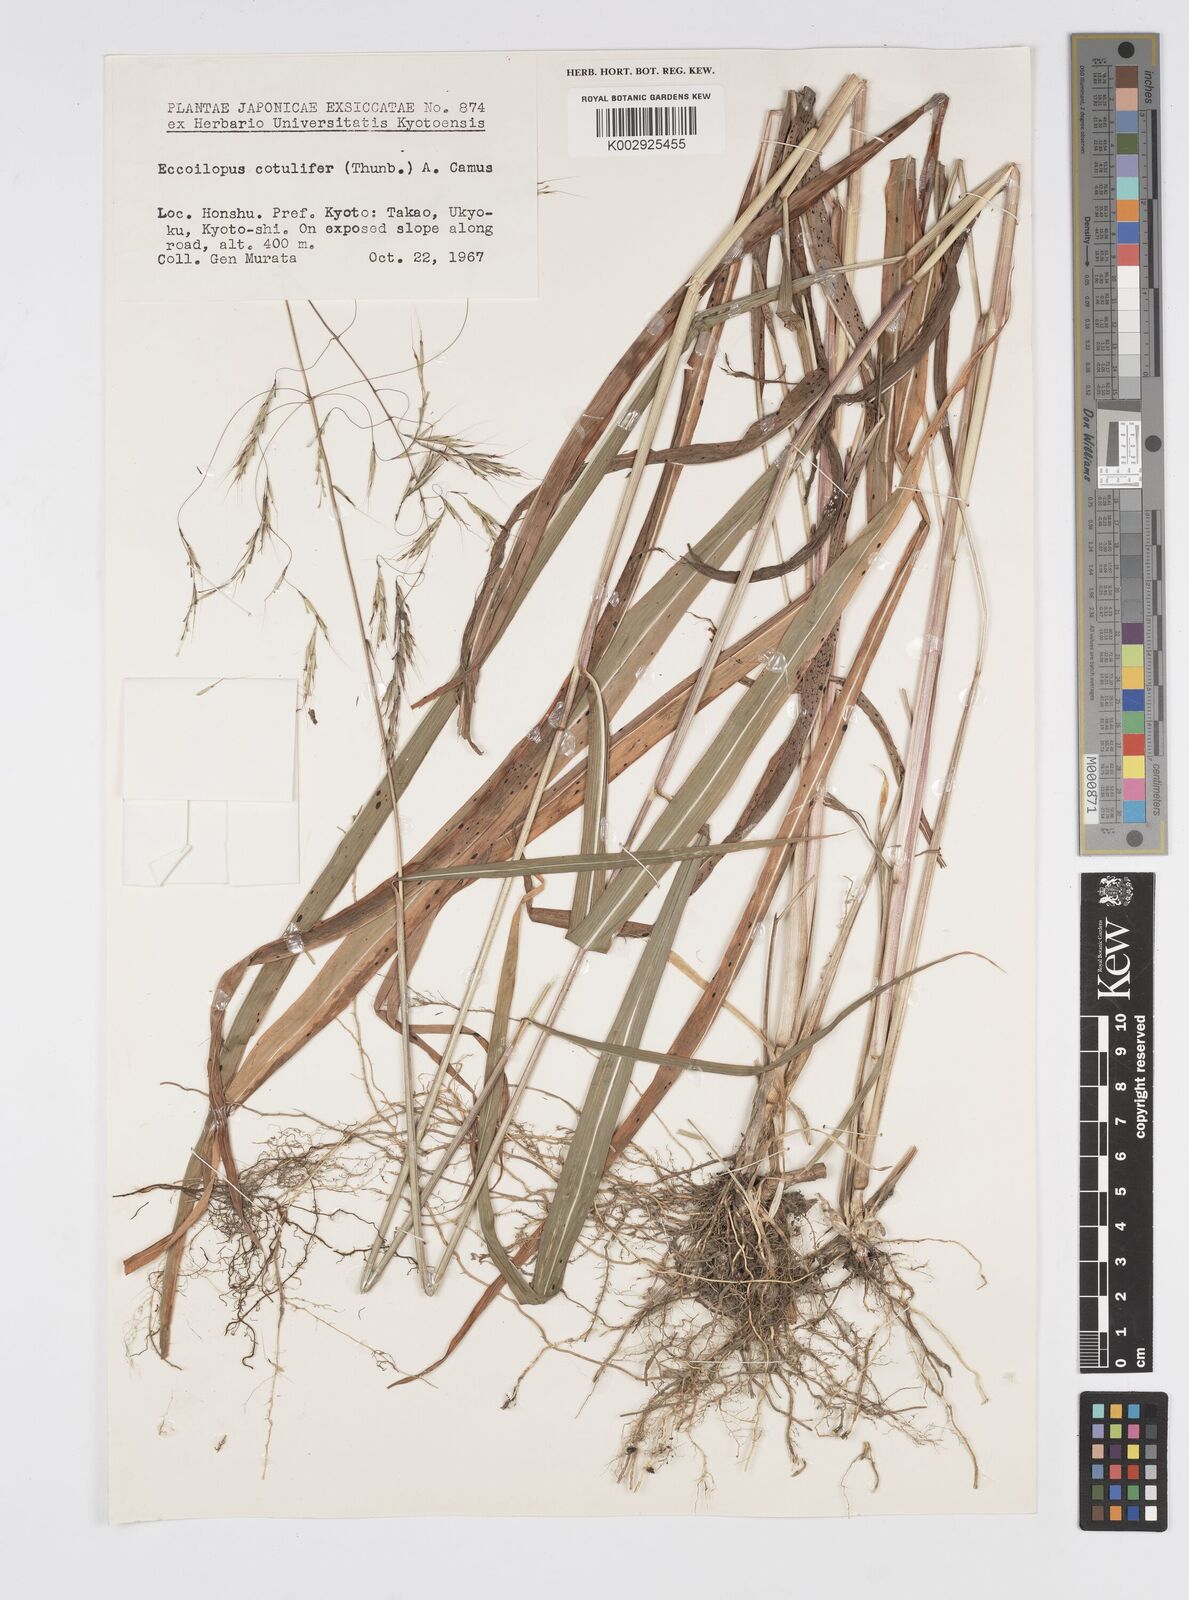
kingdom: Plantae
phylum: Tracheophyta
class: Liliopsida
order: Poales
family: Poaceae
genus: Spodiopogon
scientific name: Spodiopogon cotulifer
